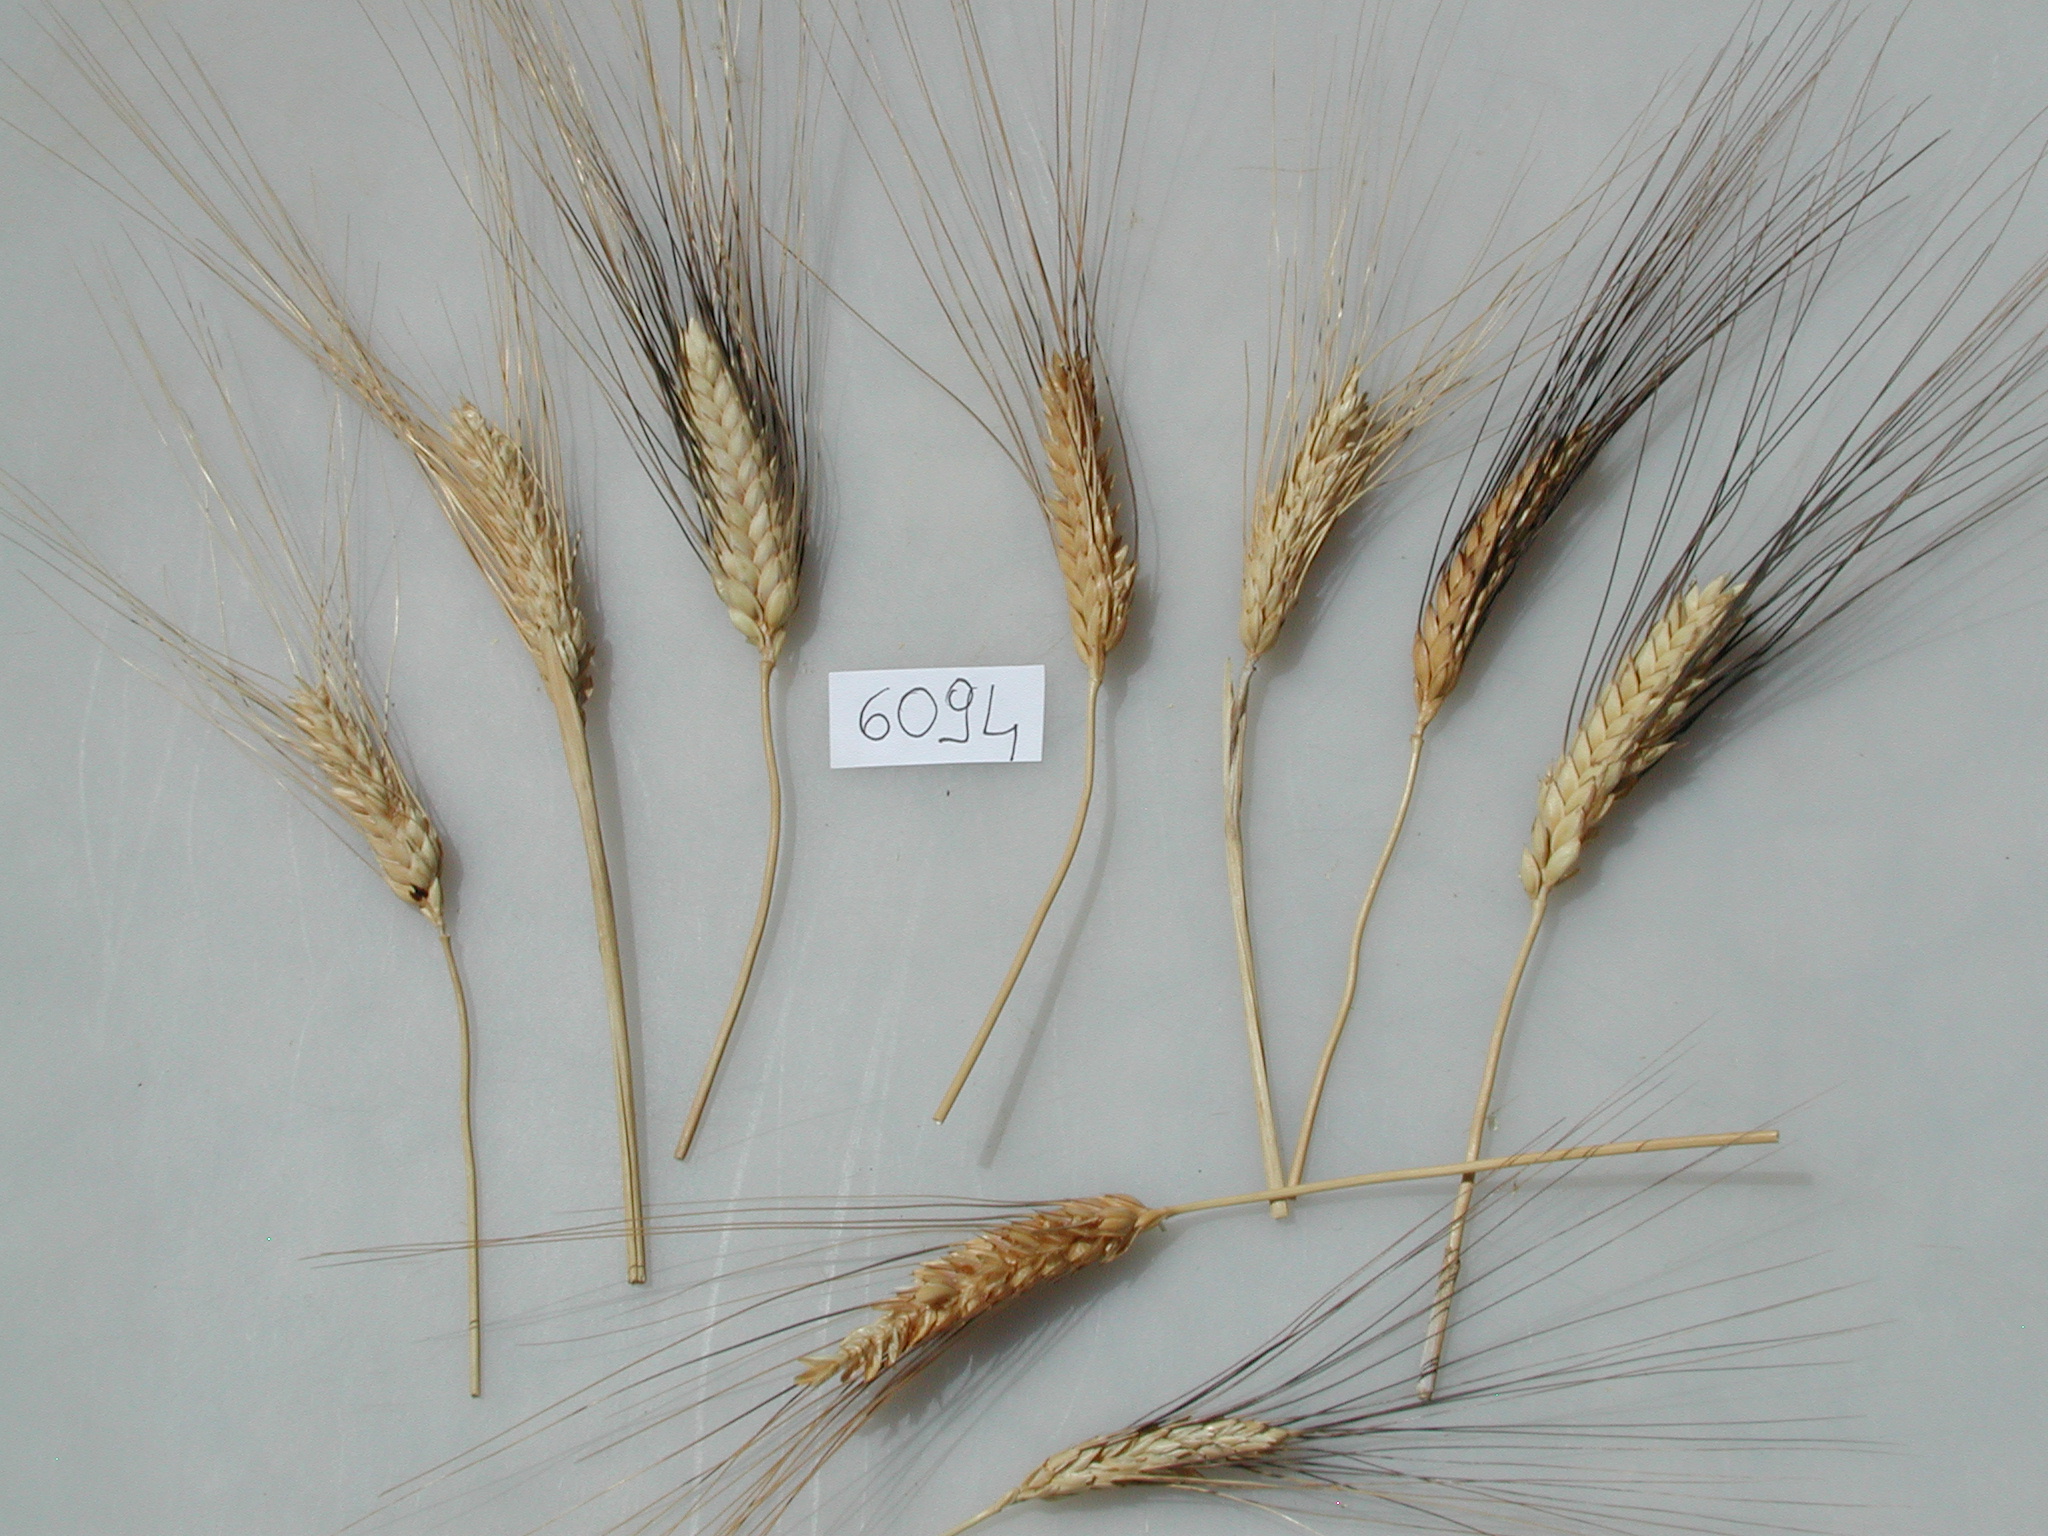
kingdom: Plantae
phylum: Tracheophyta
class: Liliopsida
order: Poales
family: Poaceae
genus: Triticum
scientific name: Triticum turgidum
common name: Wheat
